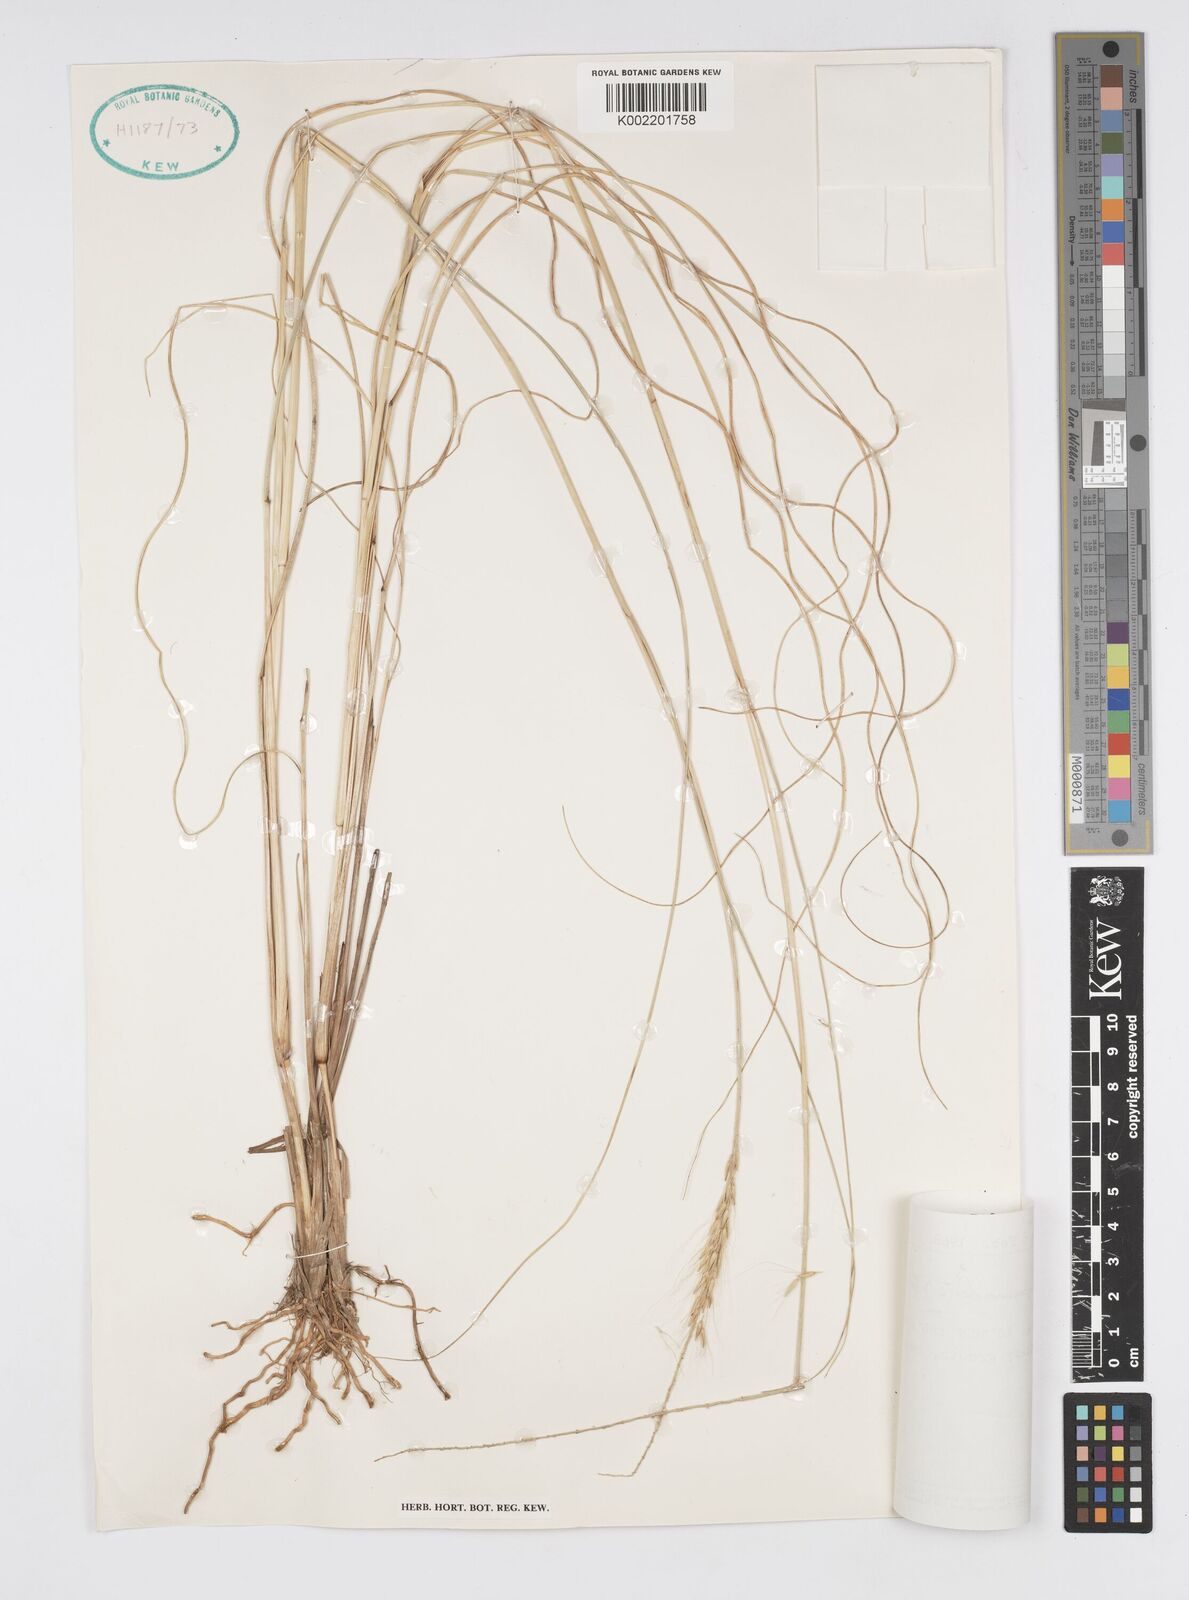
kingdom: Plantae
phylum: Tracheophyta
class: Liliopsida
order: Poales
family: Poaceae
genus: Cenchrus
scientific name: Cenchrus setosus
